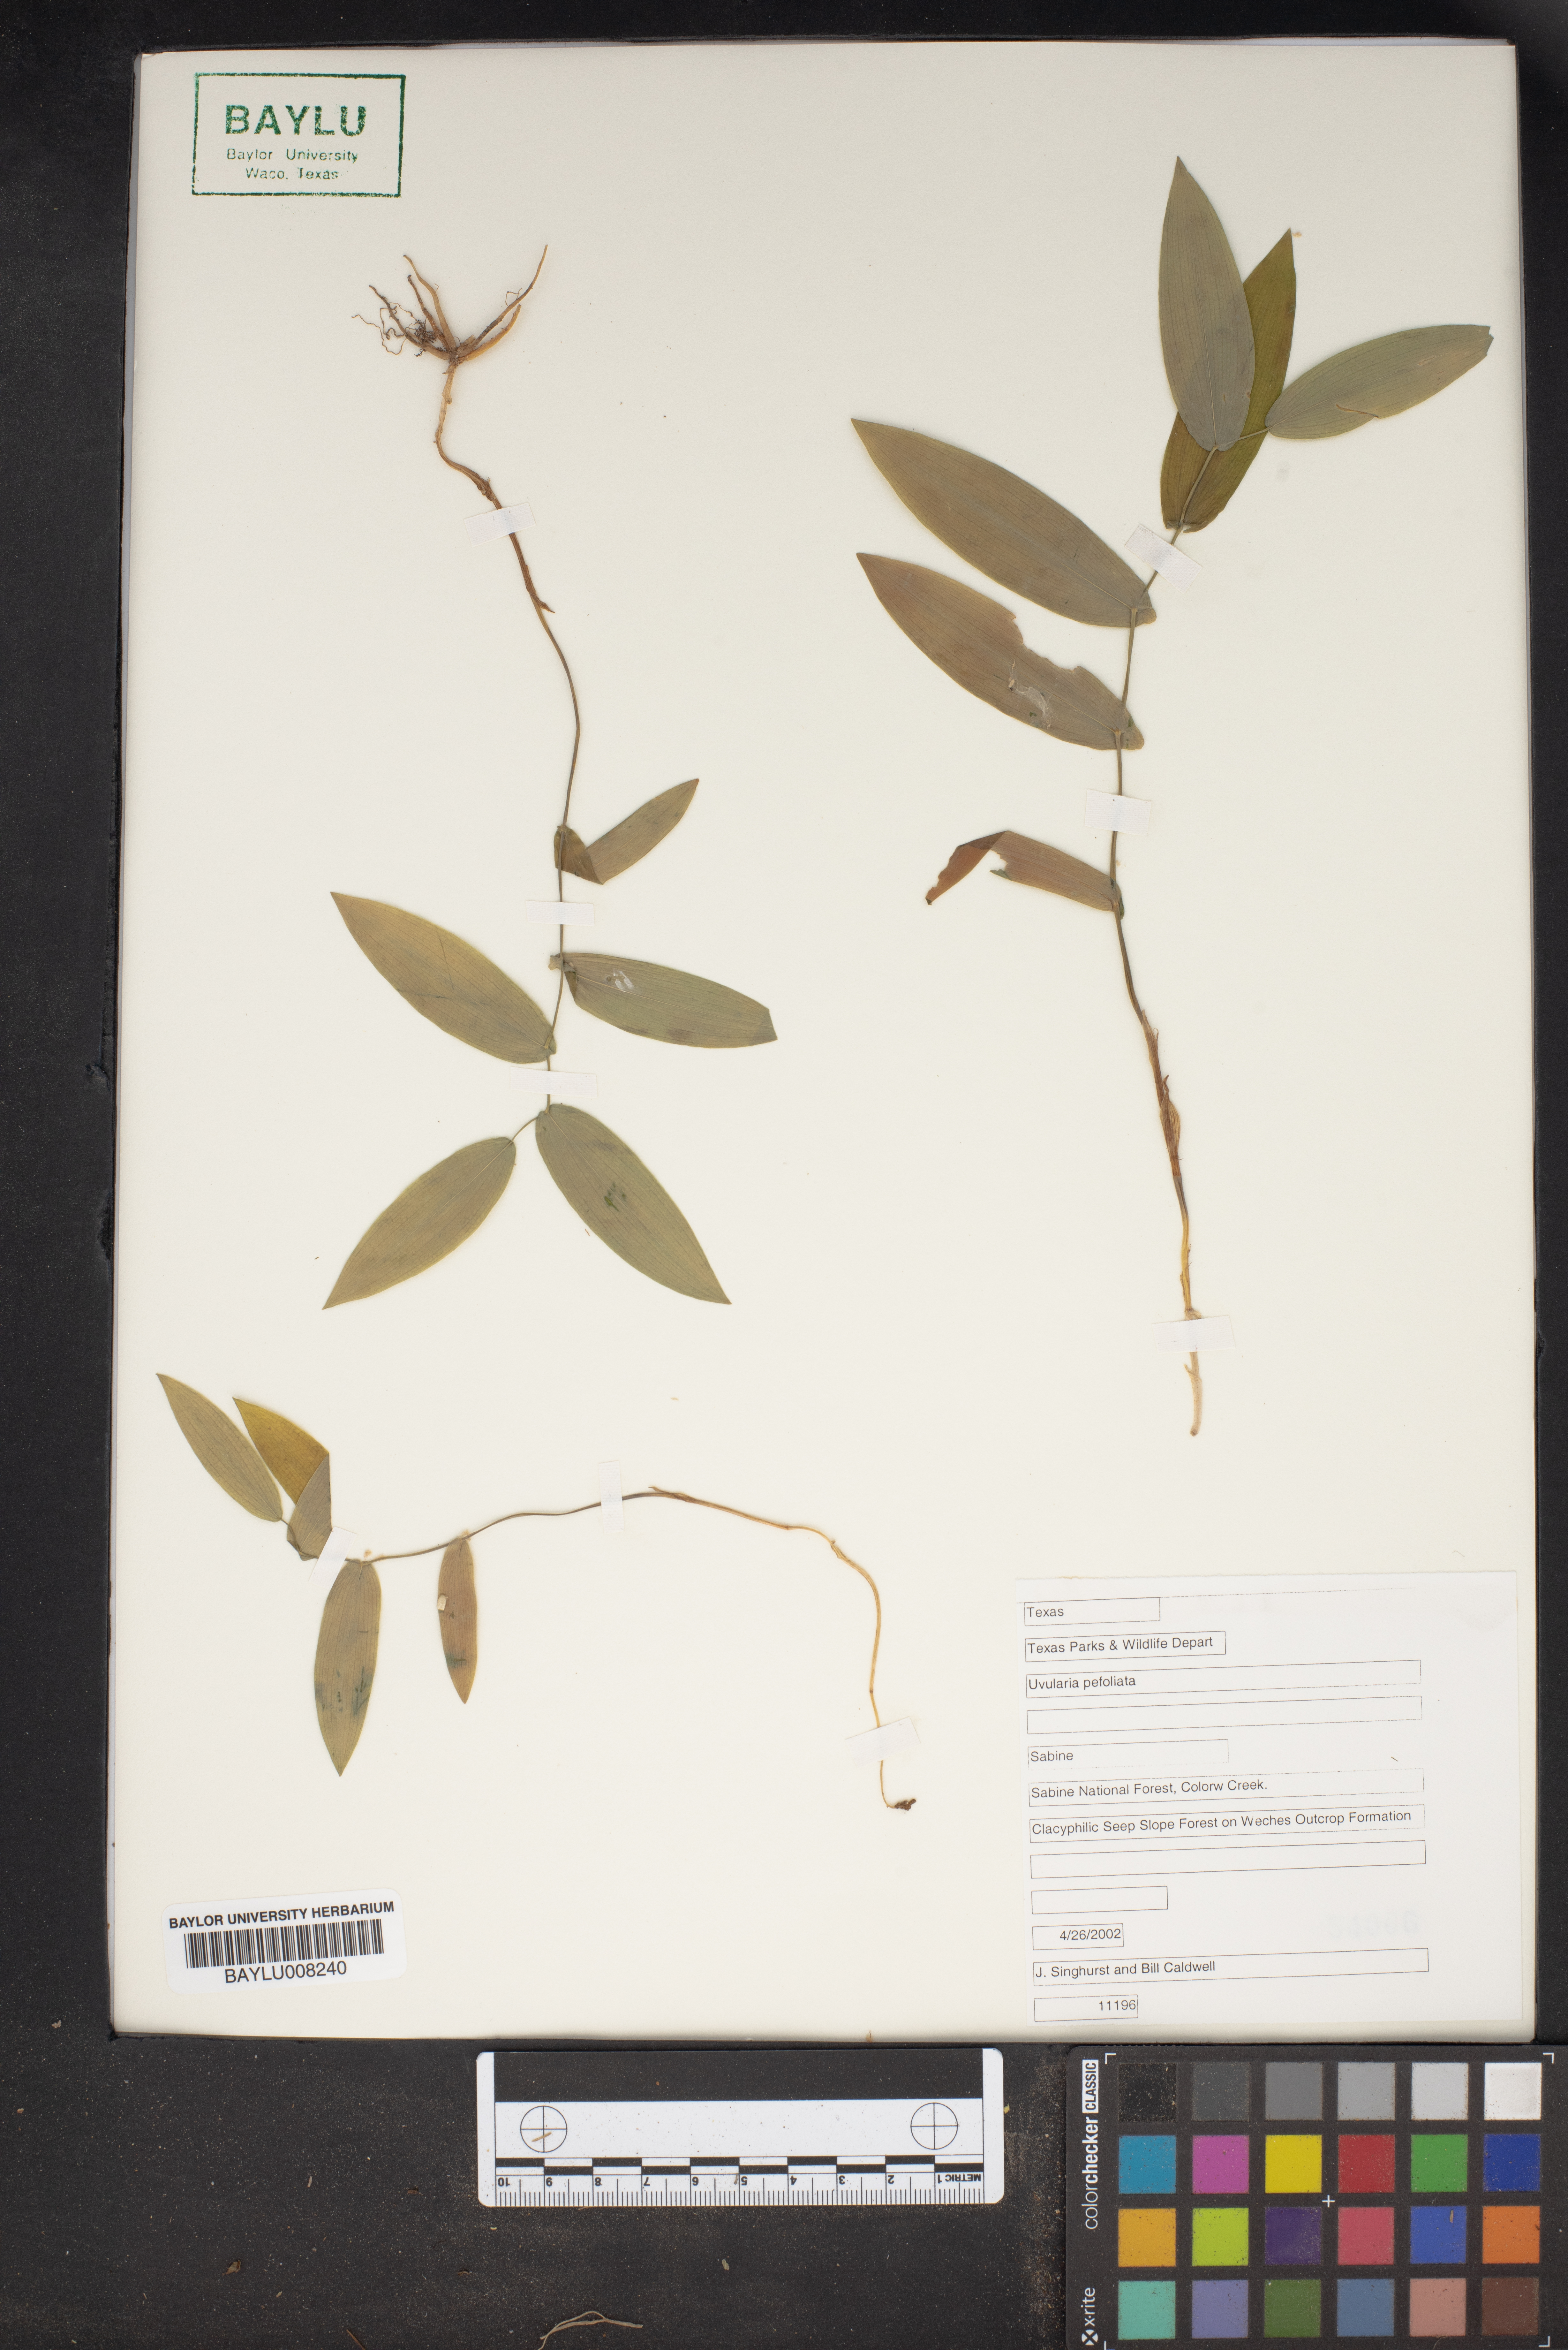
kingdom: Plantae
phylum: Tracheophyta
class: Liliopsida
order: Liliales
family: Colchicaceae
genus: Uvularia
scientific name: Uvularia perfoliata
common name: Perfoliate bellwort
